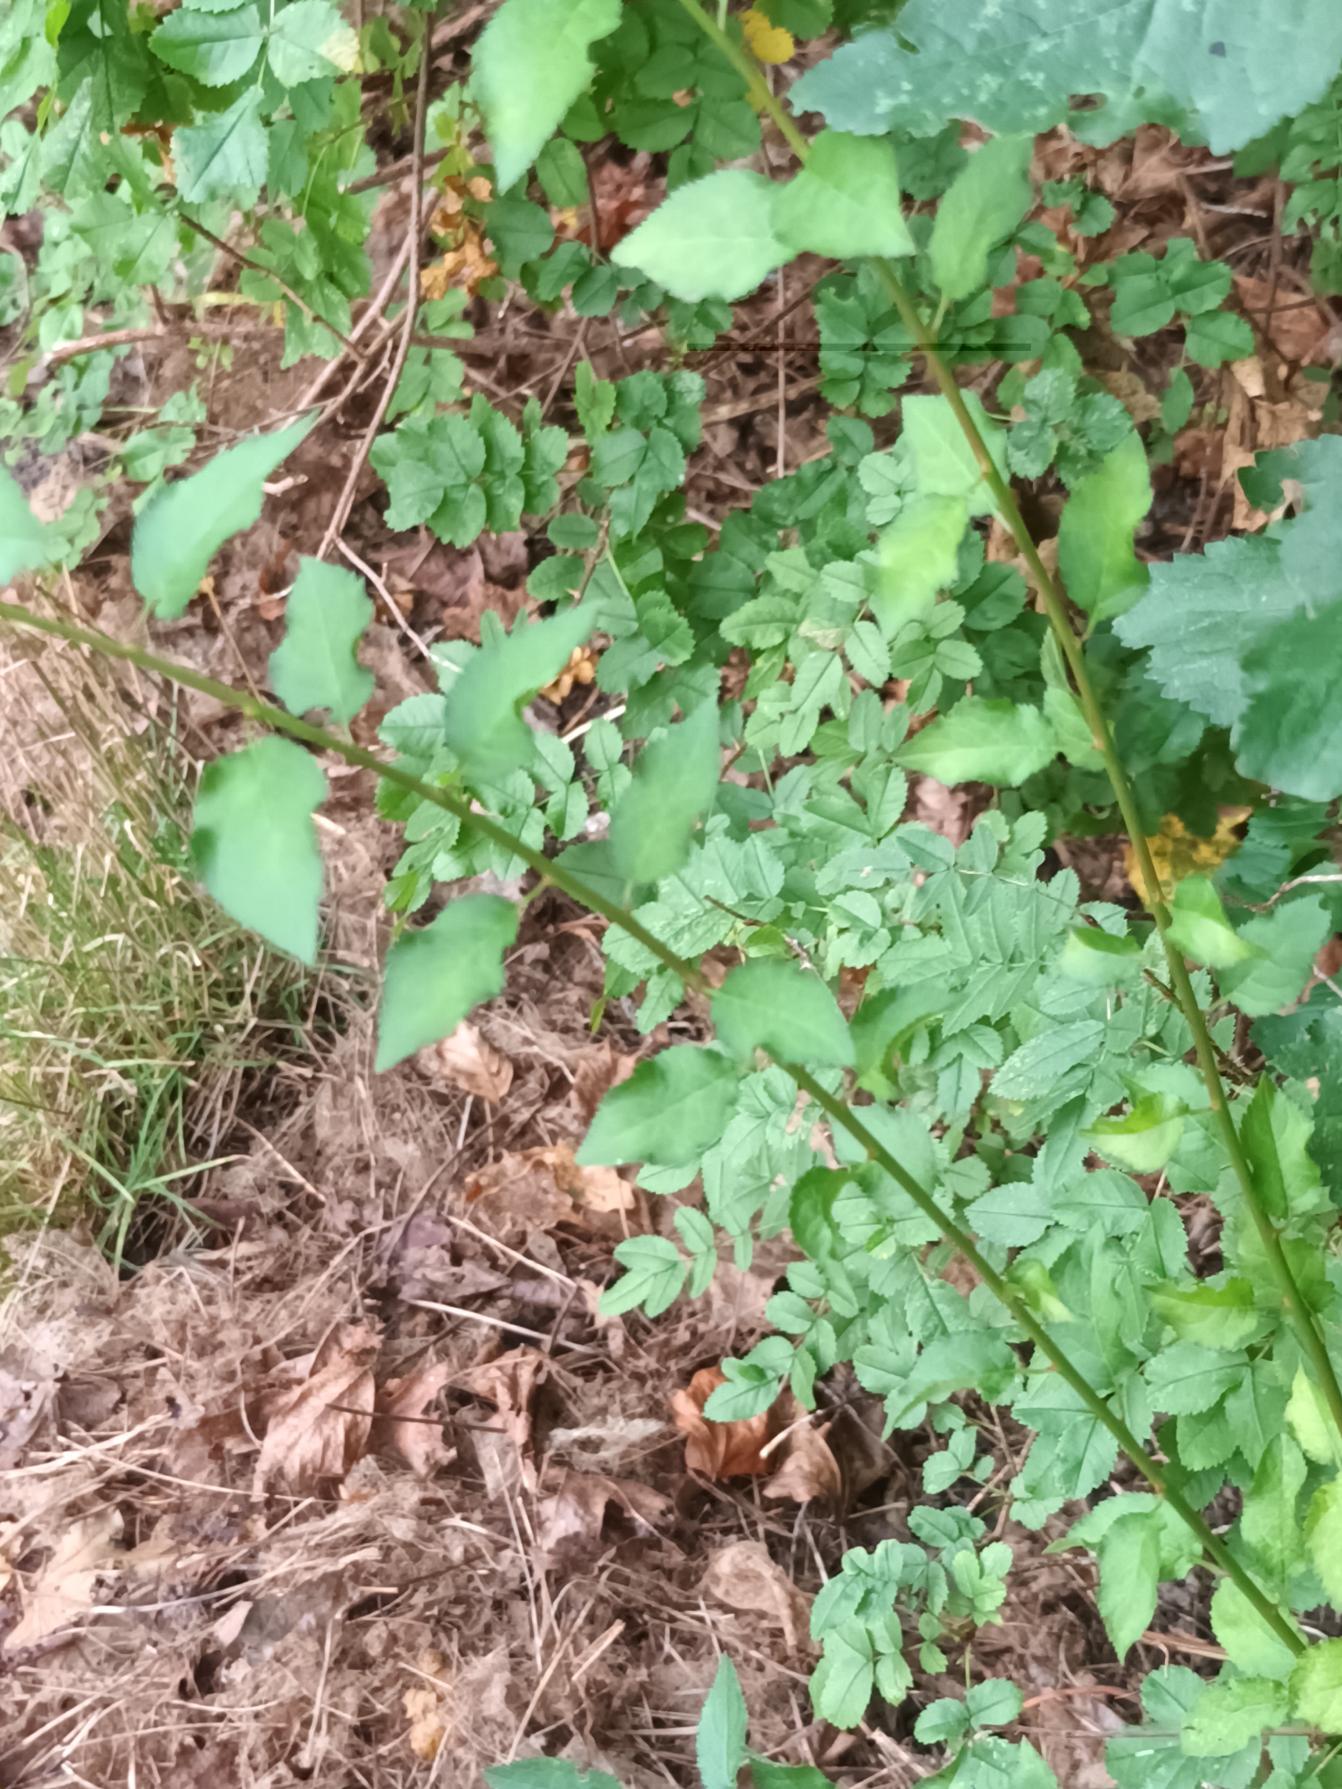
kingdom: Plantae
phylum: Tracheophyta
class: Magnoliopsida
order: Rosales
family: Rosaceae
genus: Prunus
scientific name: Prunus cerasifera
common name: Mirabel
